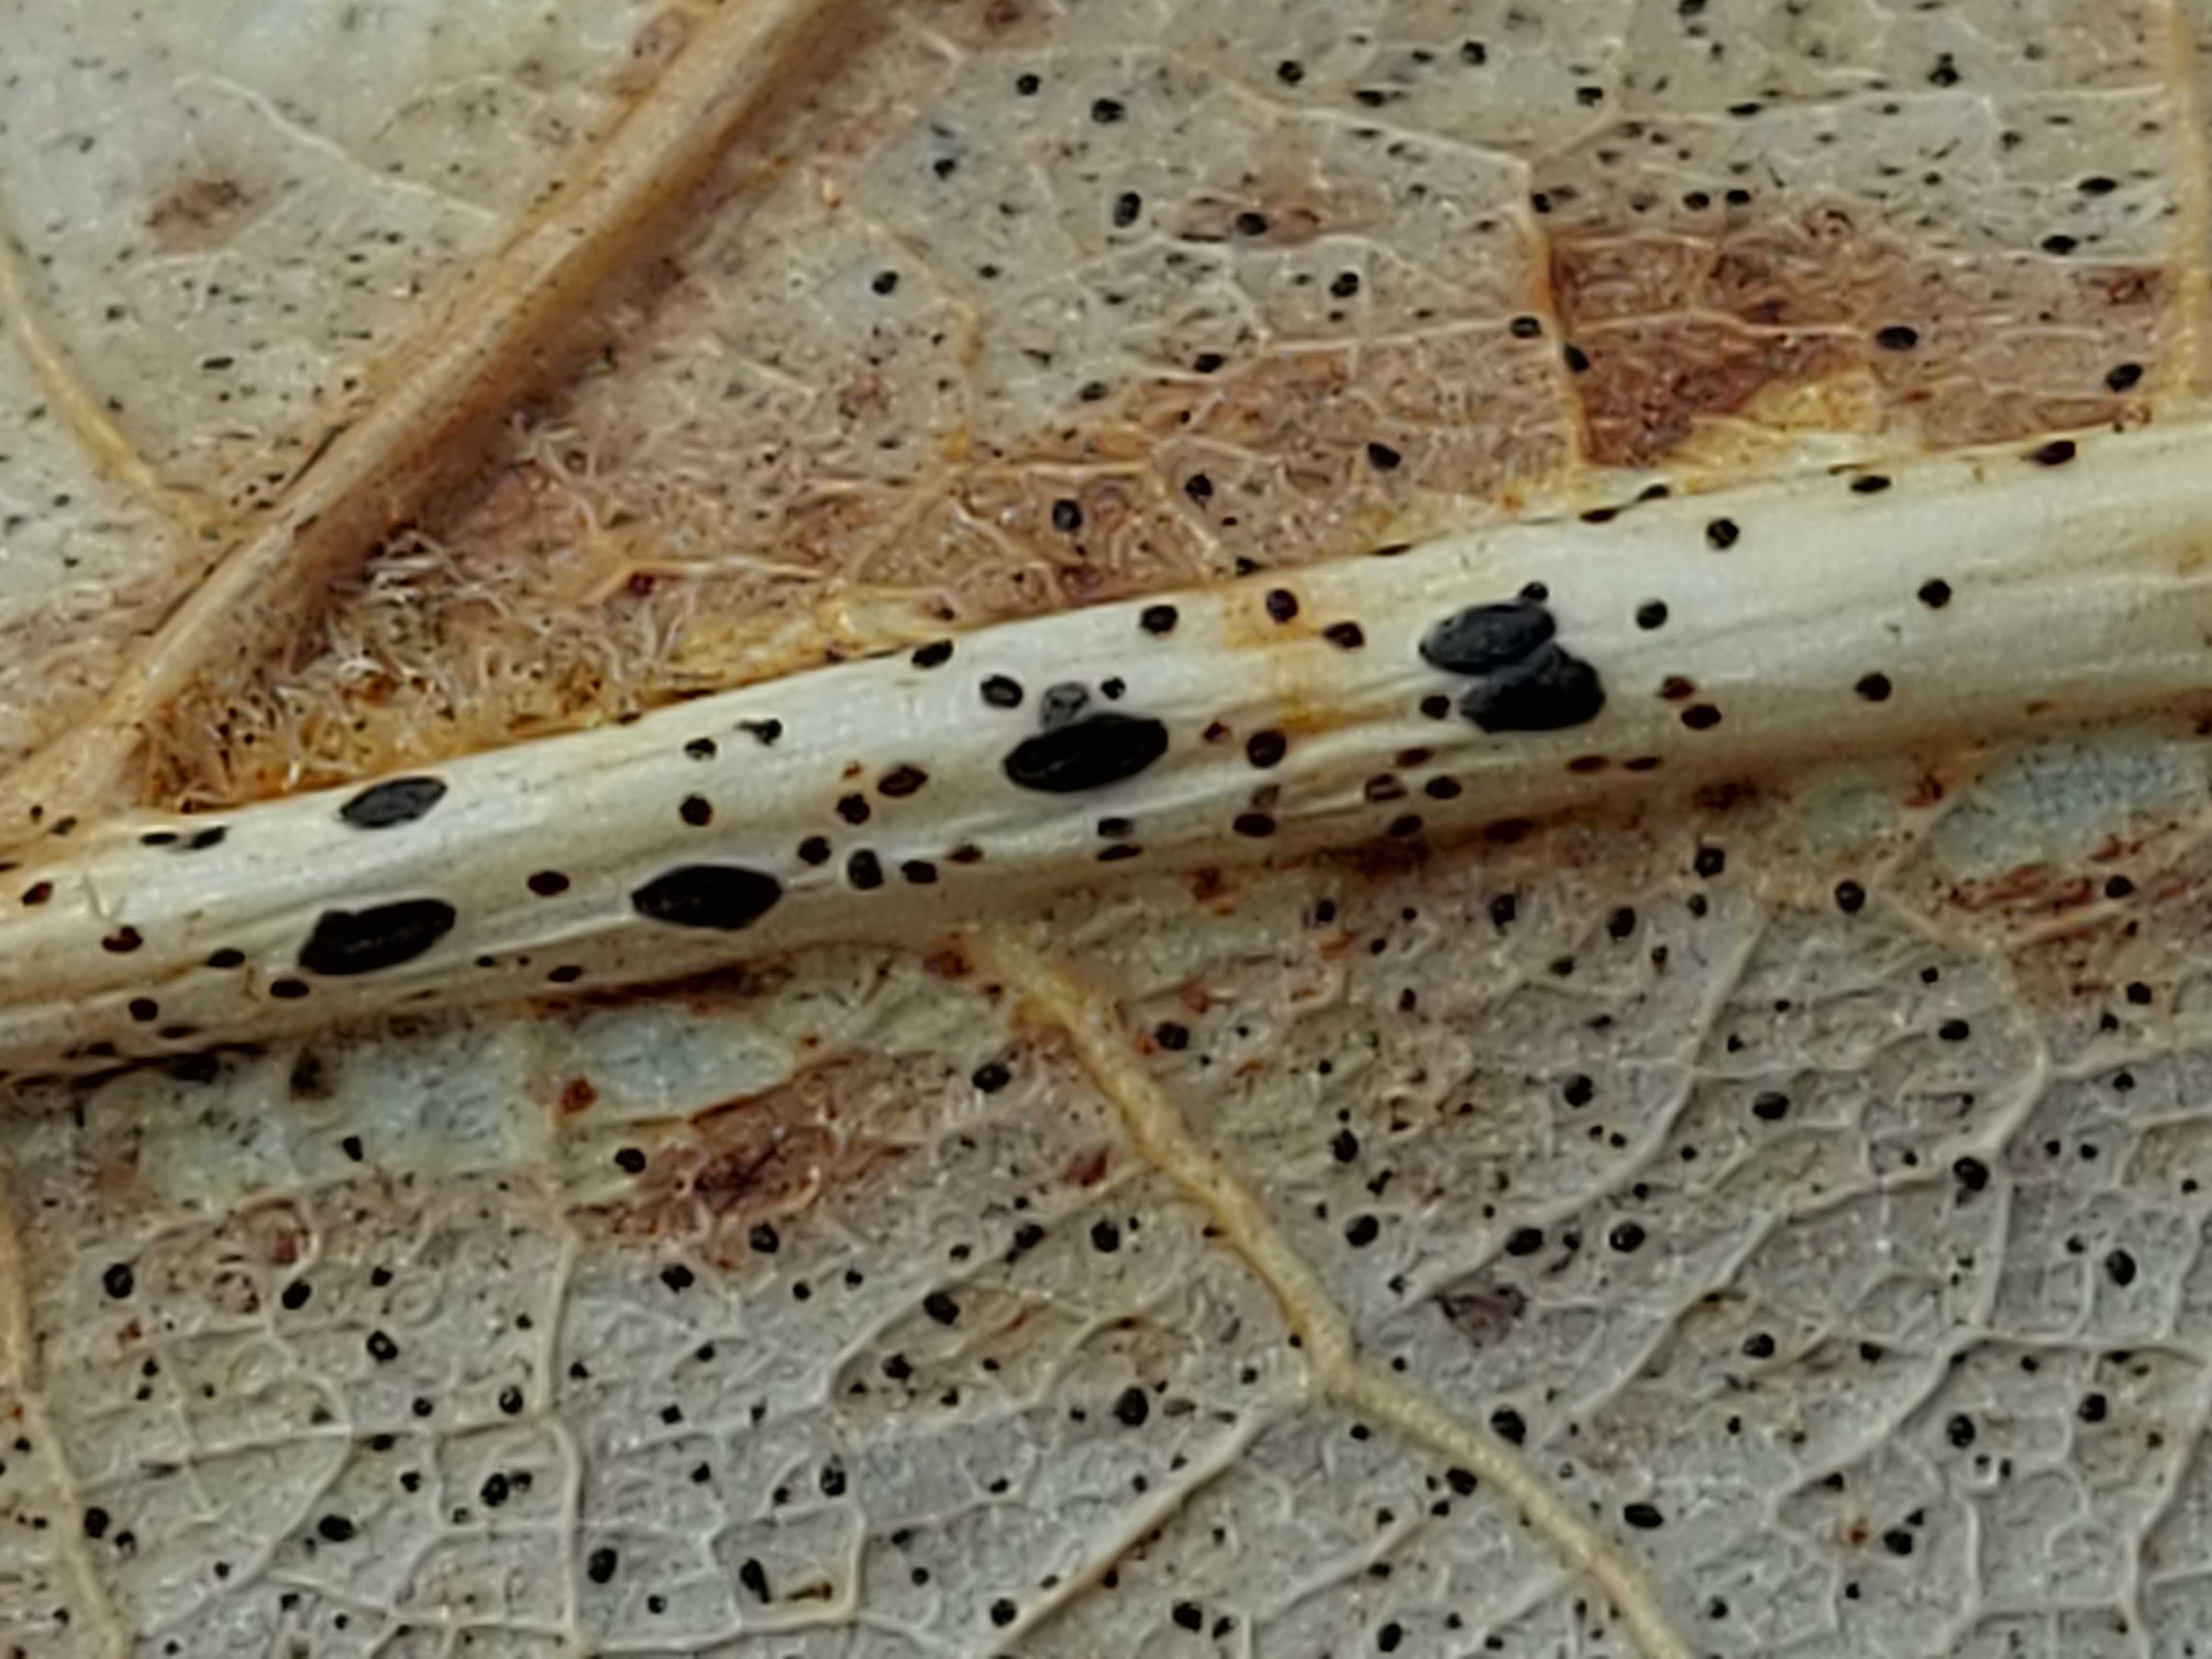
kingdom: Fungi
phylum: Ascomycota
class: Leotiomycetes
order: Rhytismatales
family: Rhytismataceae
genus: Lophodermium
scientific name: Lophodermium petiolicola
